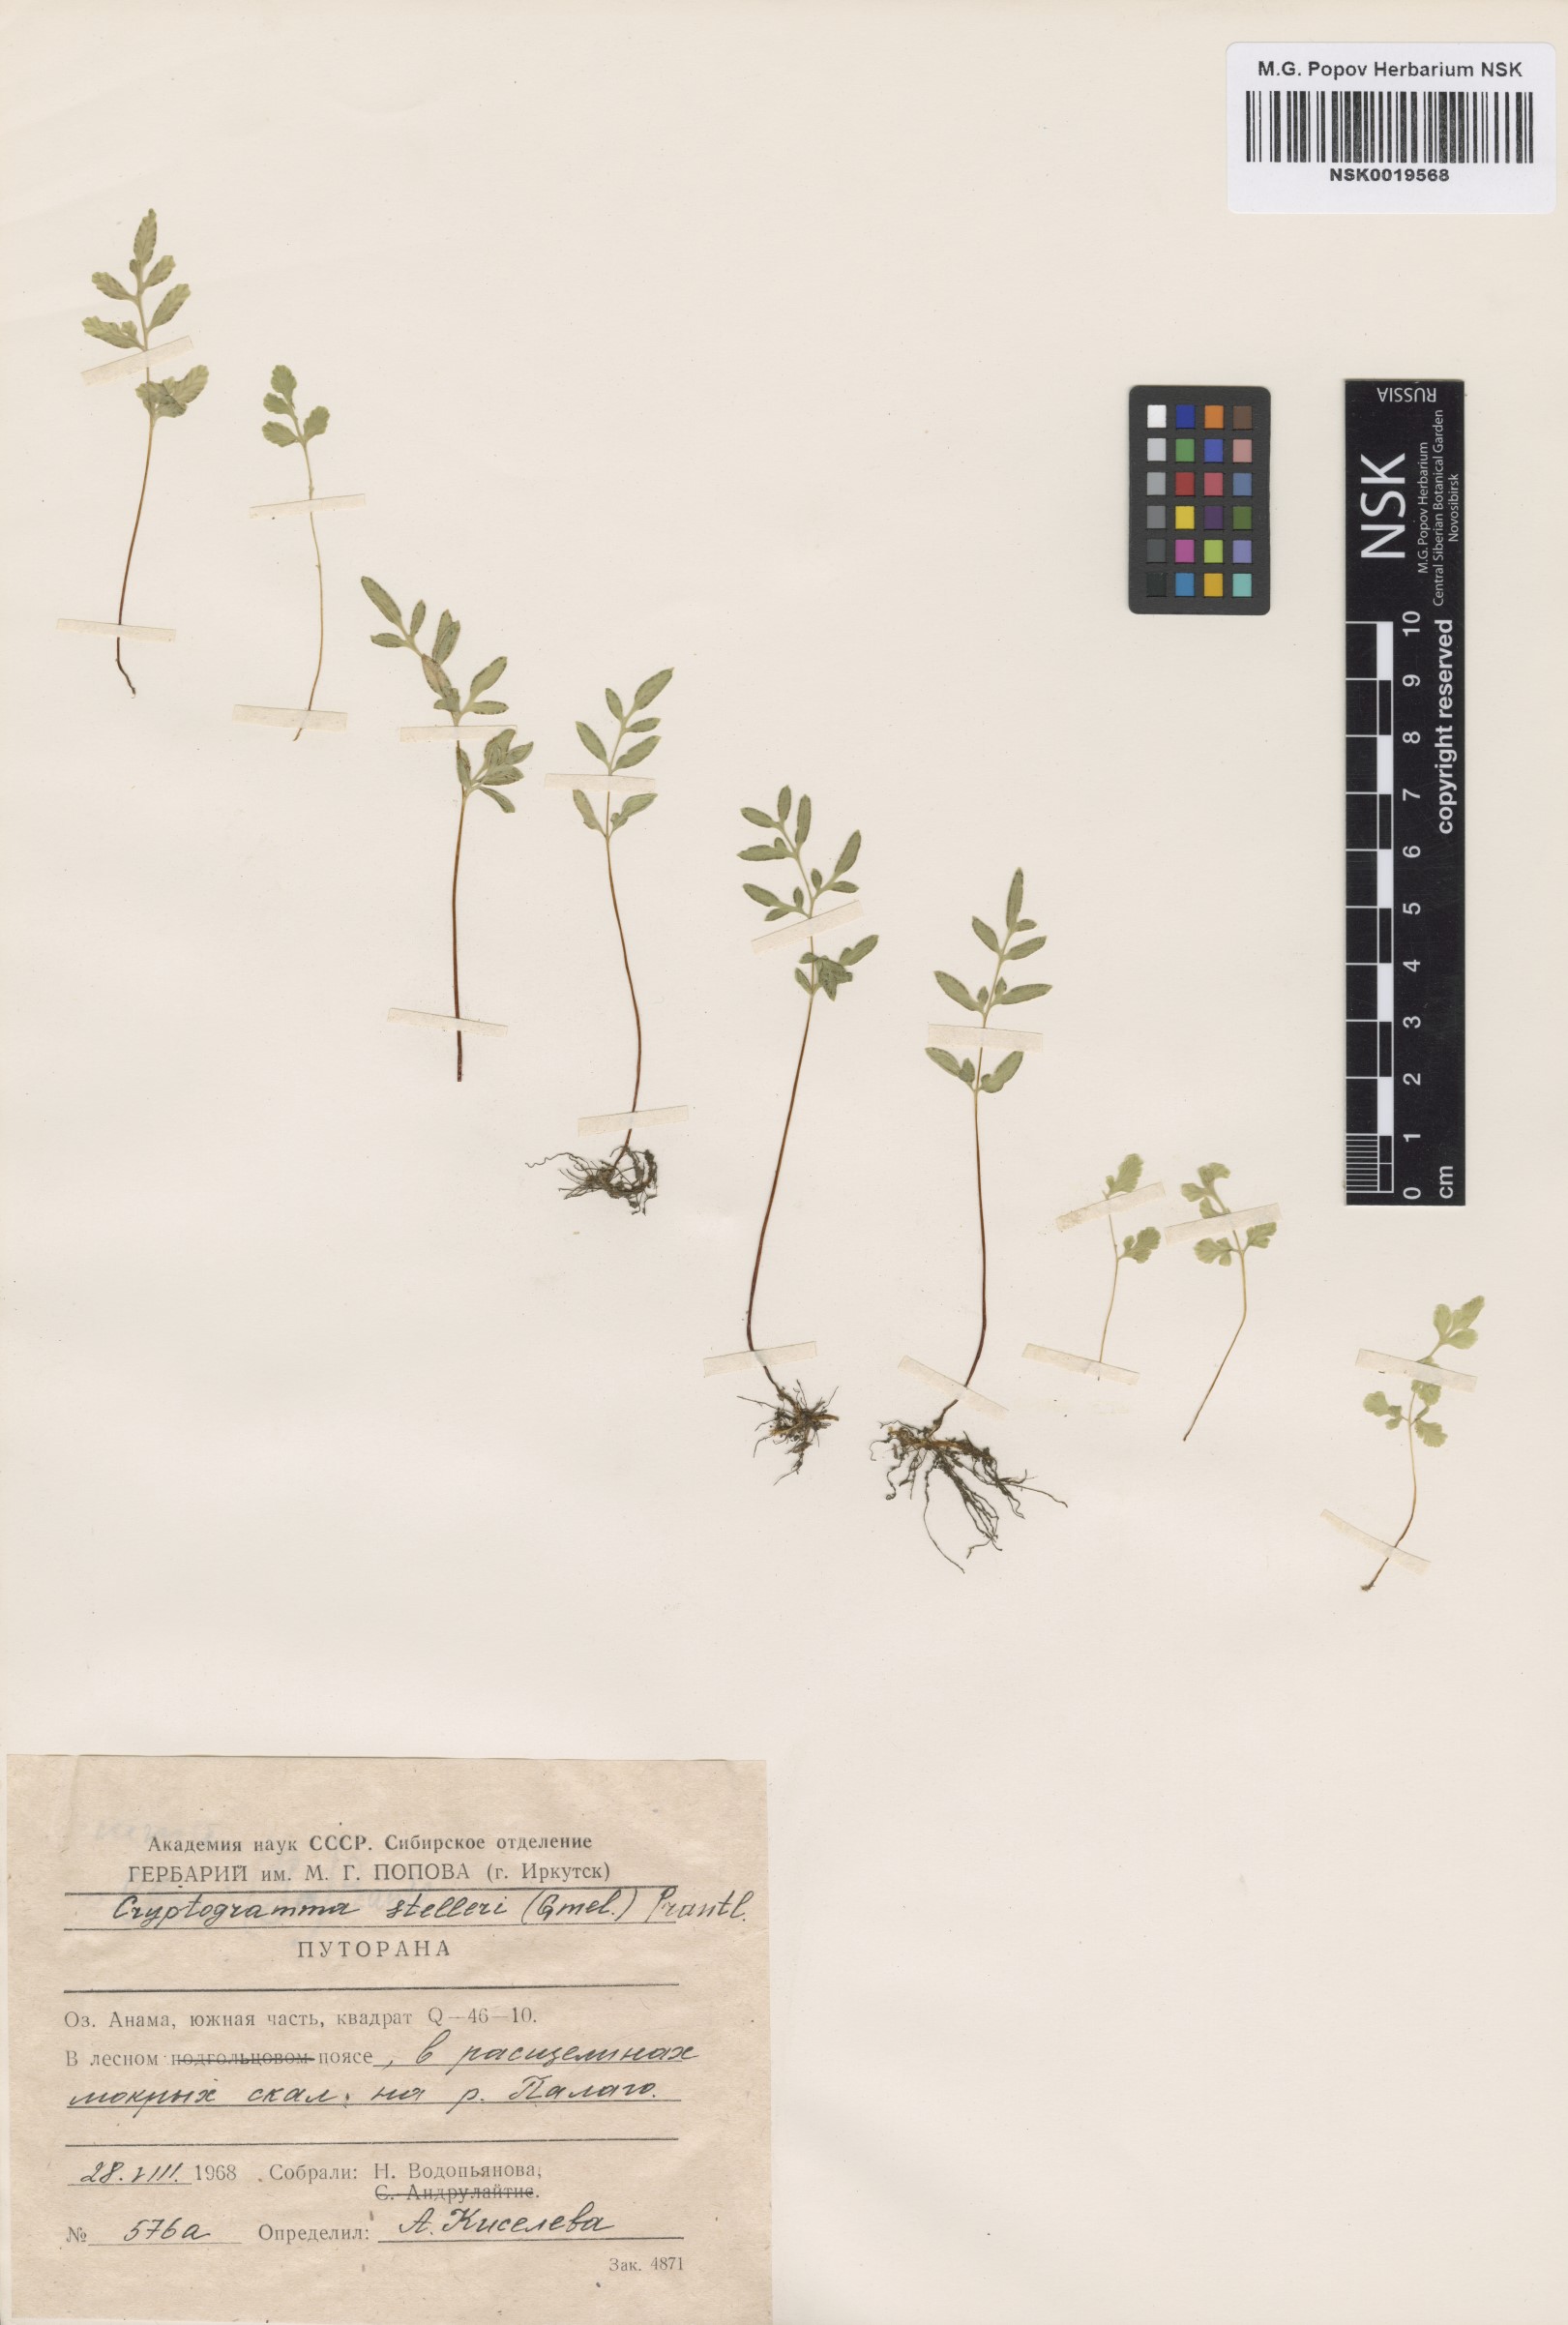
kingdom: Plantae
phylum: Tracheophyta
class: Polypodiopsida
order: Polypodiales
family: Pteridaceae
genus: Cryptogramma
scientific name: Cryptogramma stelleri
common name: Cliff-brake
